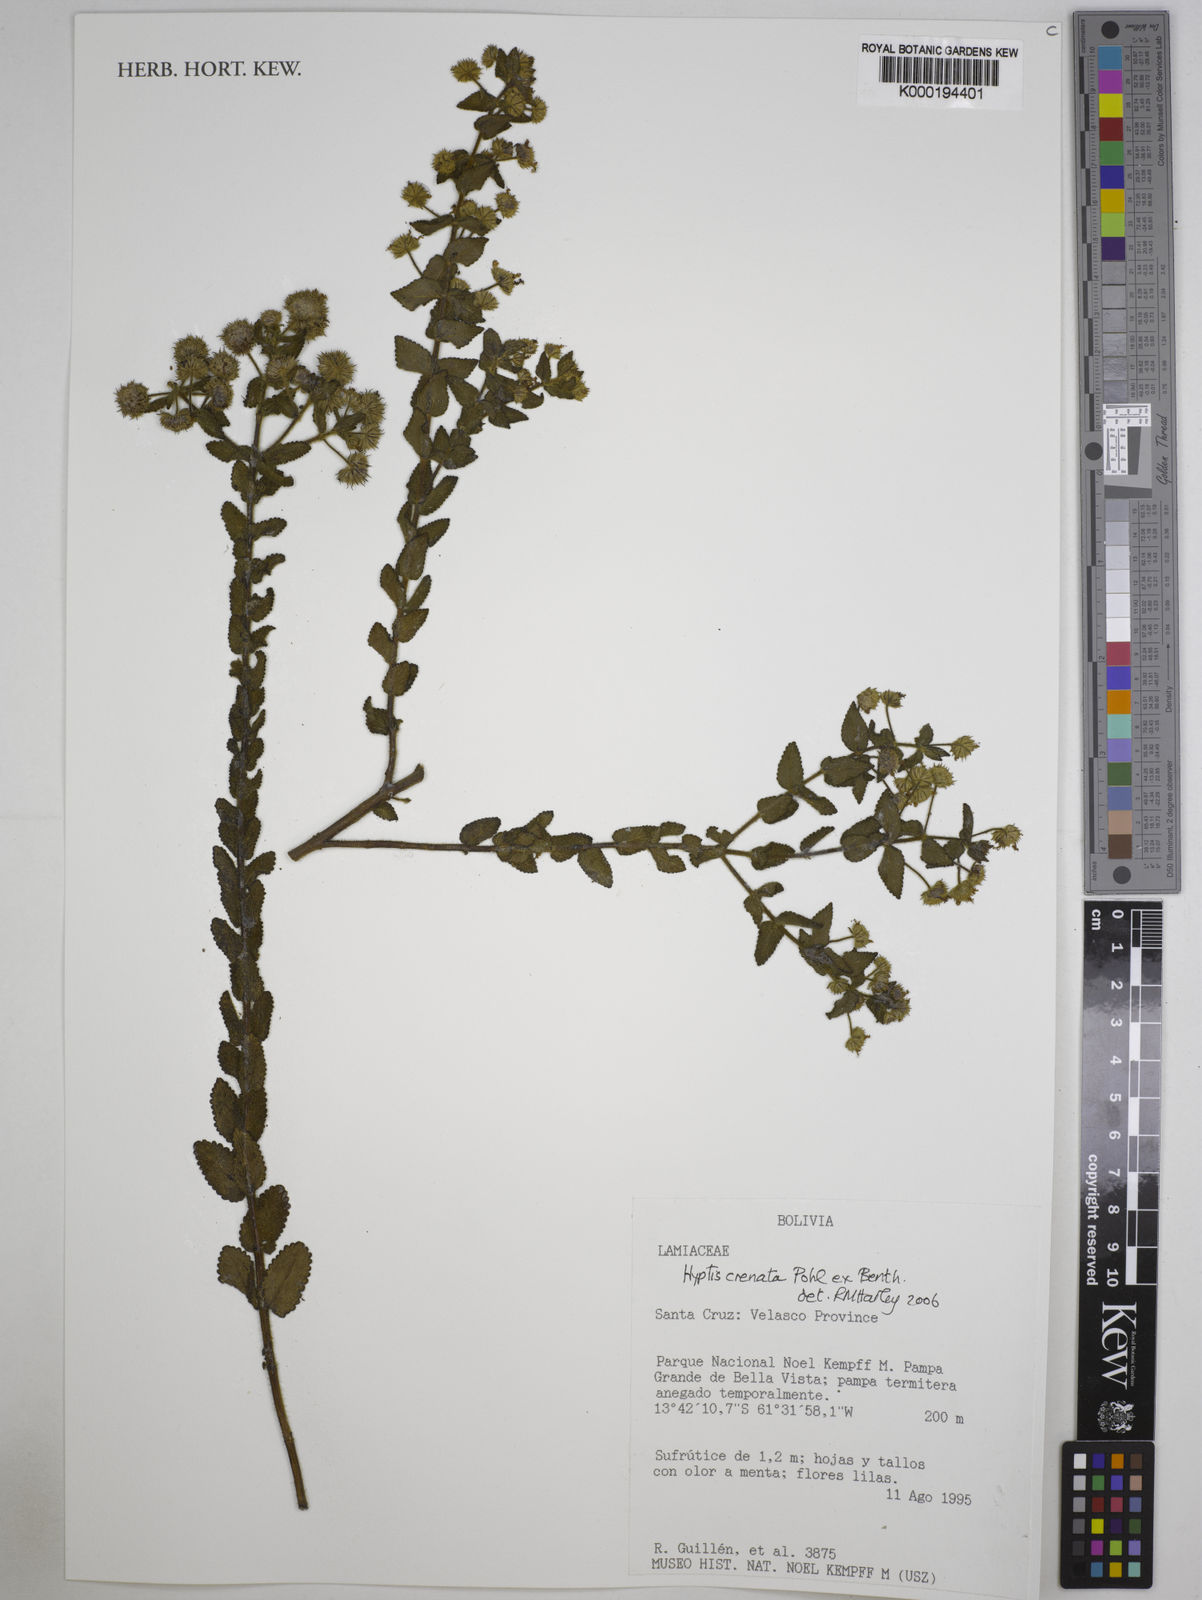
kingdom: Plantae
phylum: Tracheophyta
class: Magnoliopsida
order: Lamiales
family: Lamiaceae
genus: Hyptis
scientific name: Hyptis crenata
